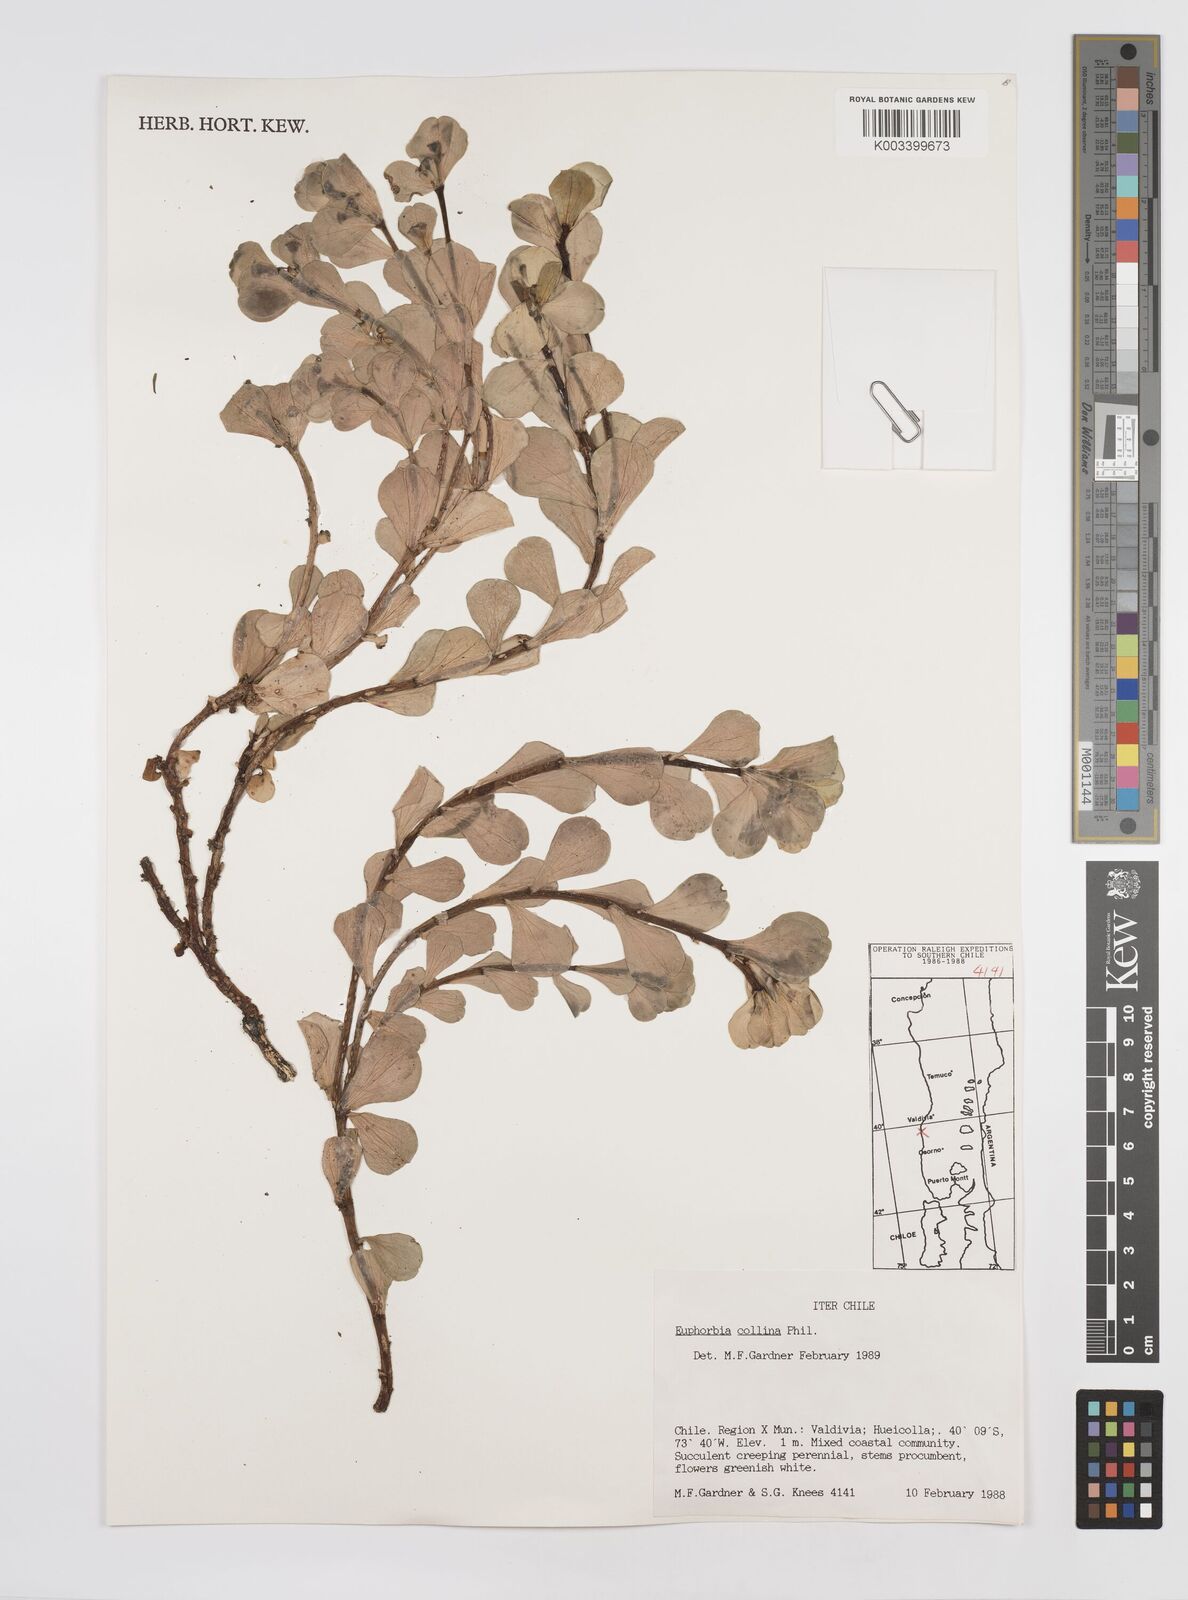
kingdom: Plantae
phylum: Tracheophyta
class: Magnoliopsida
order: Malpighiales
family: Euphorbiaceae
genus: Euphorbia
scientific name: Euphorbia
